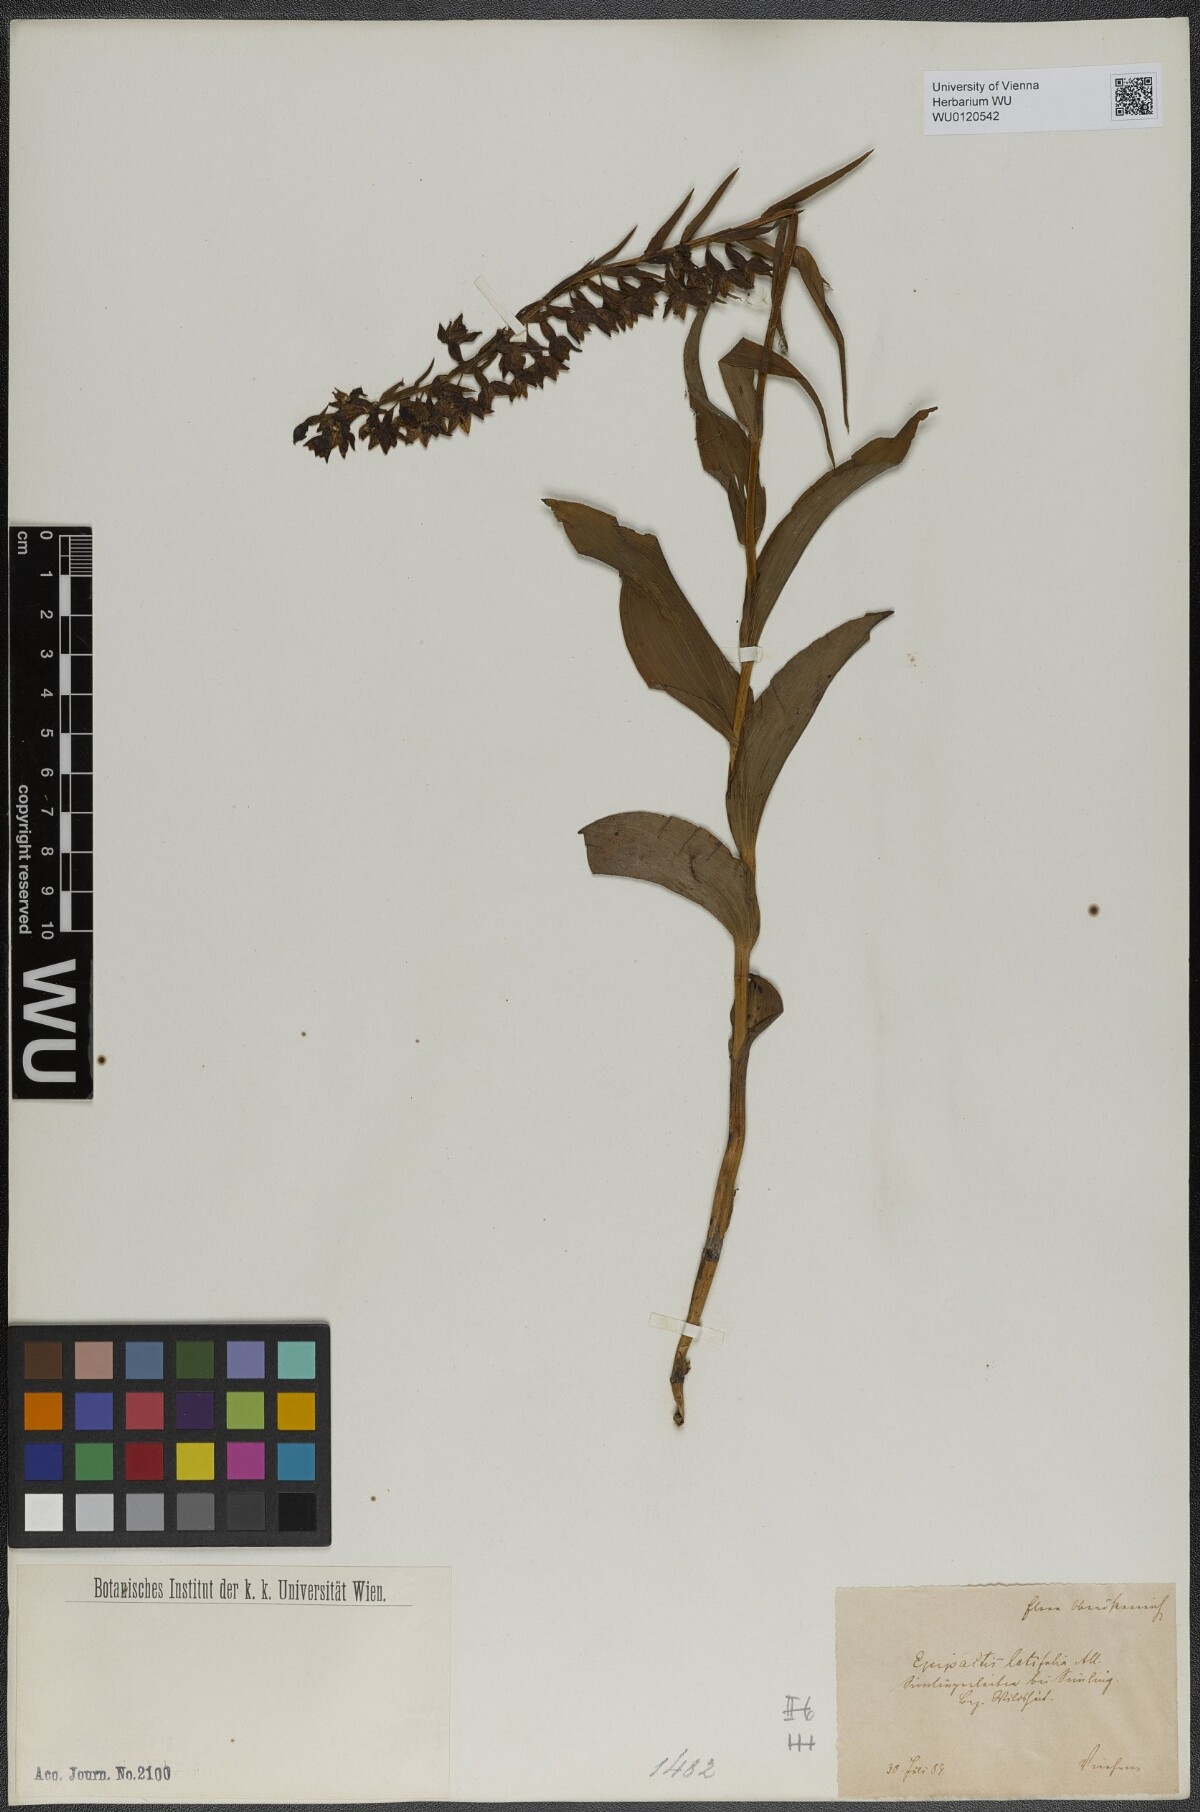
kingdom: Plantae
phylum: Tracheophyta
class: Liliopsida
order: Asparagales
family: Orchidaceae
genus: Epipactis
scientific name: Epipactis helleborine
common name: Broad-leaved helleborine
